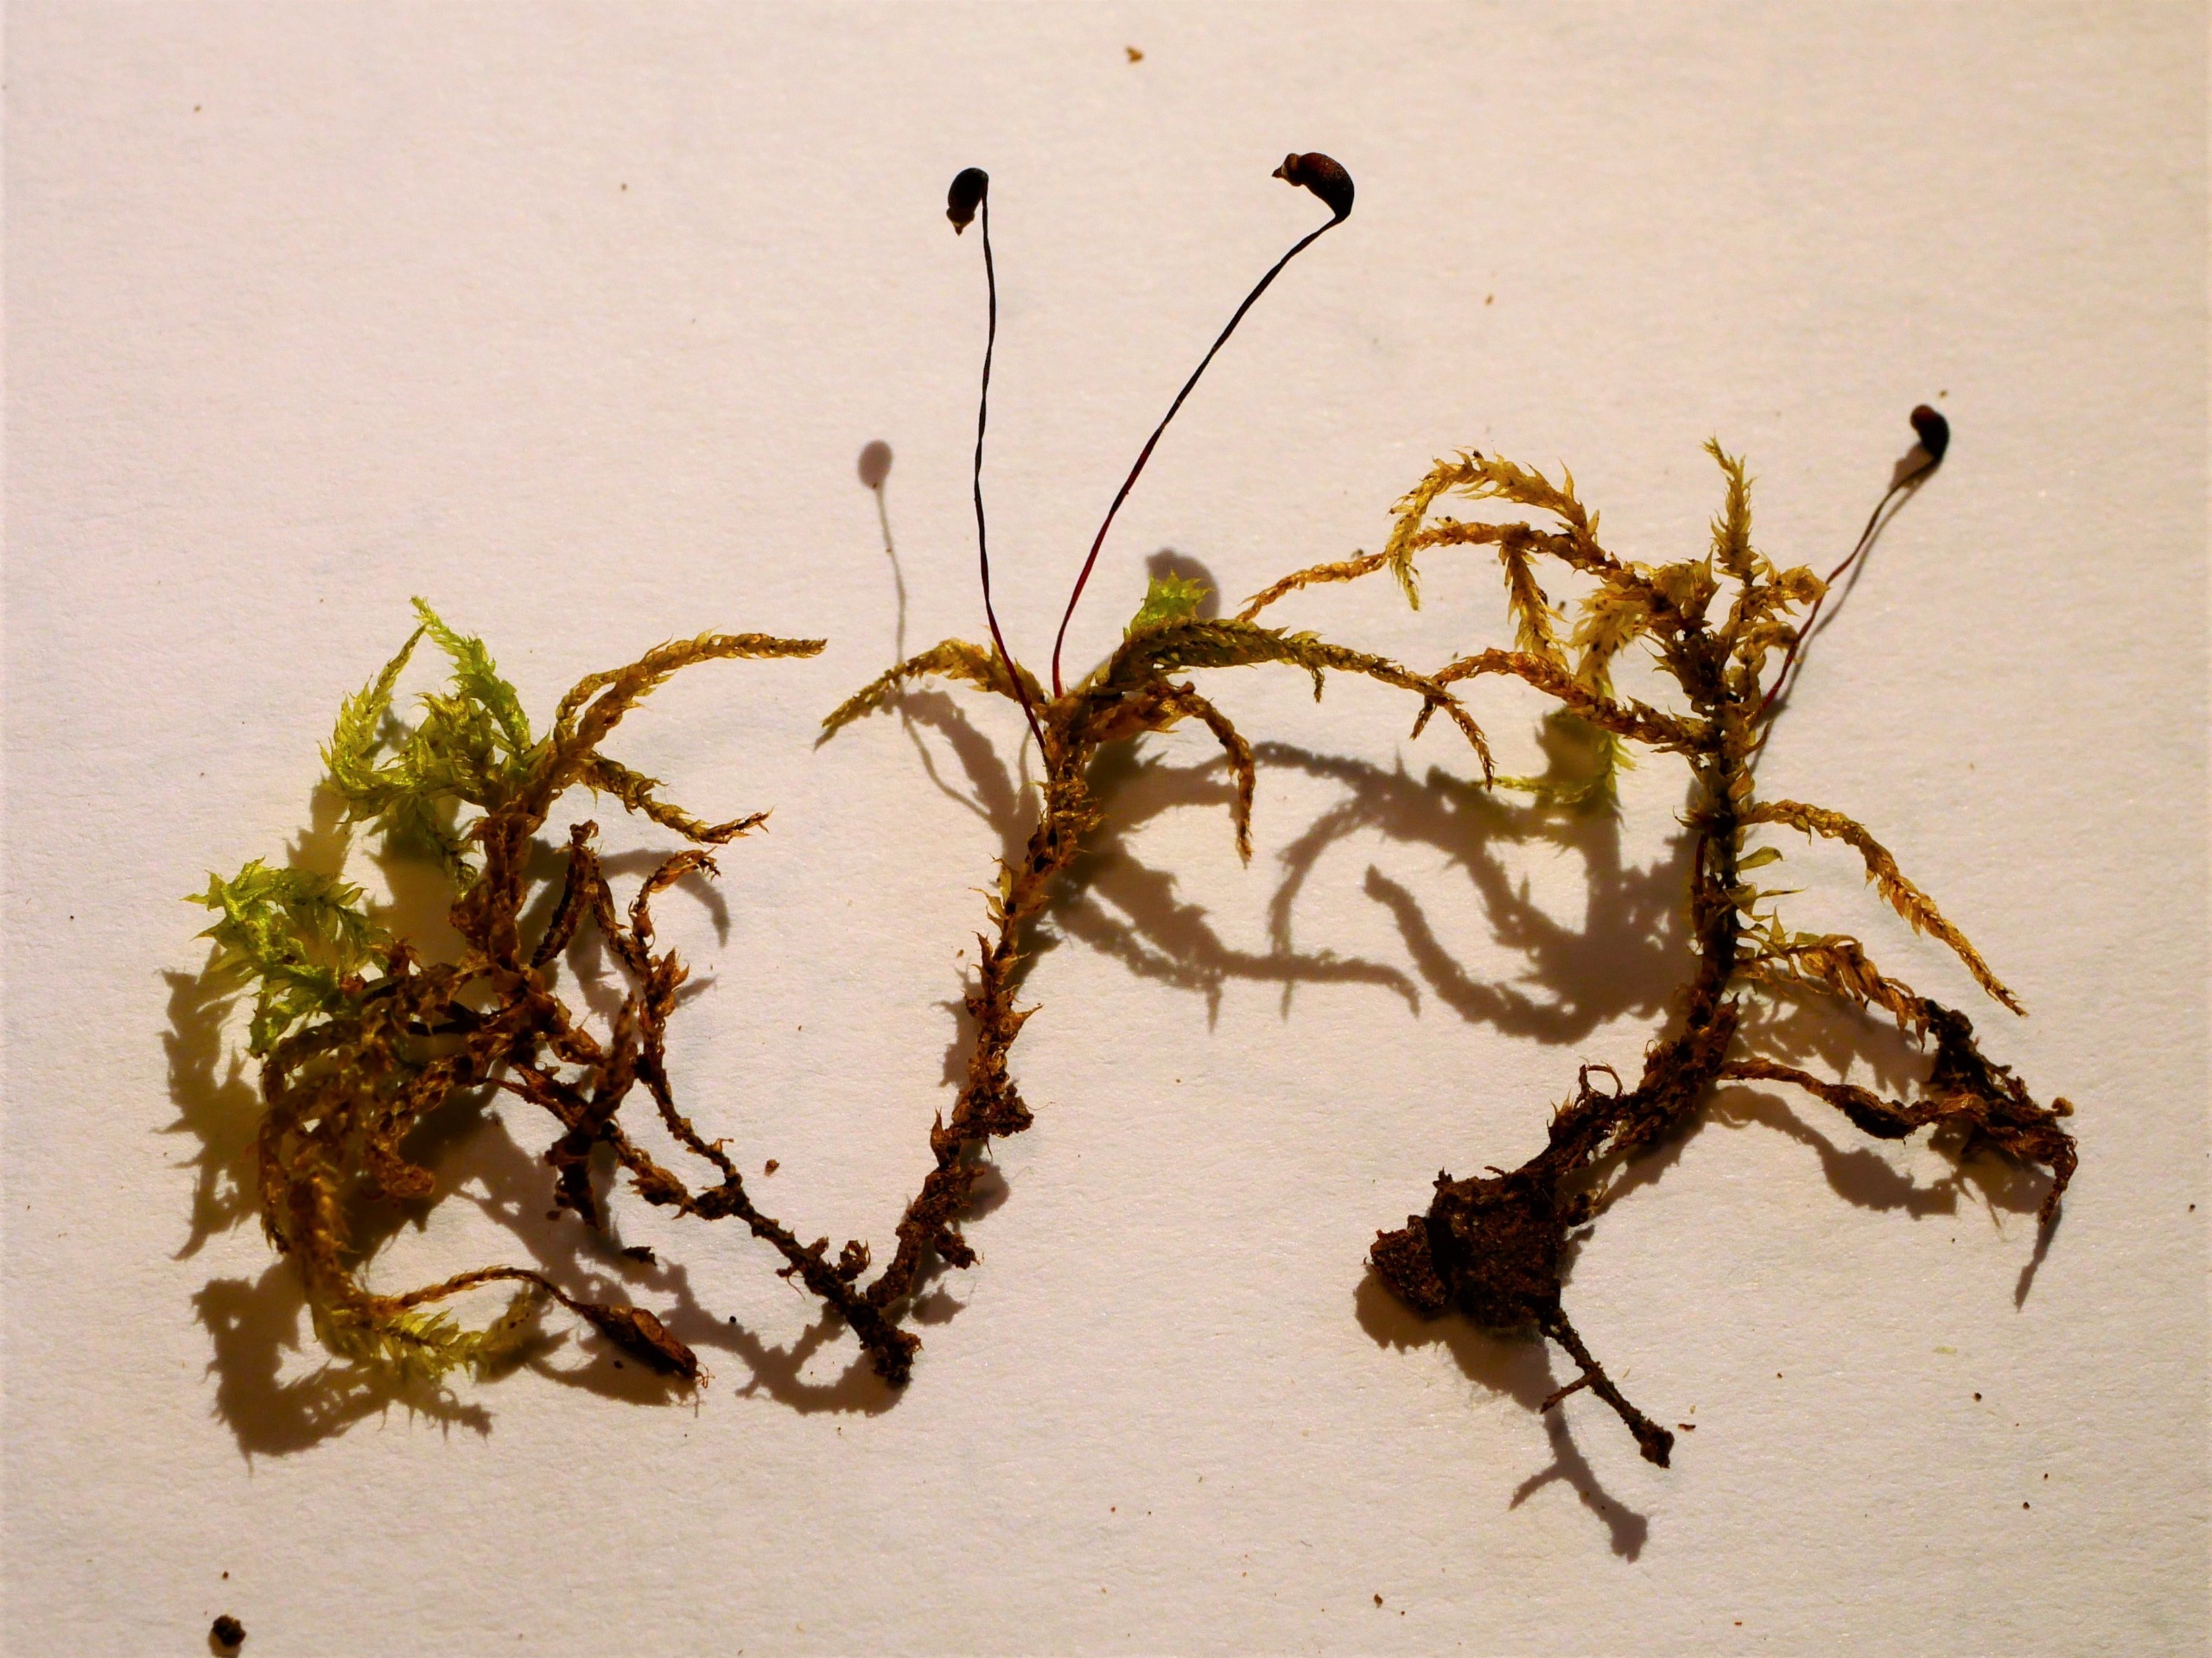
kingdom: Plantae
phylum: Bryophyta
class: Bryopsida
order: Hypnales
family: Brachytheciaceae
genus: Sciuro-hypnum
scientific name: Sciuro-hypnum curtum
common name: Grøn kortkapsel
